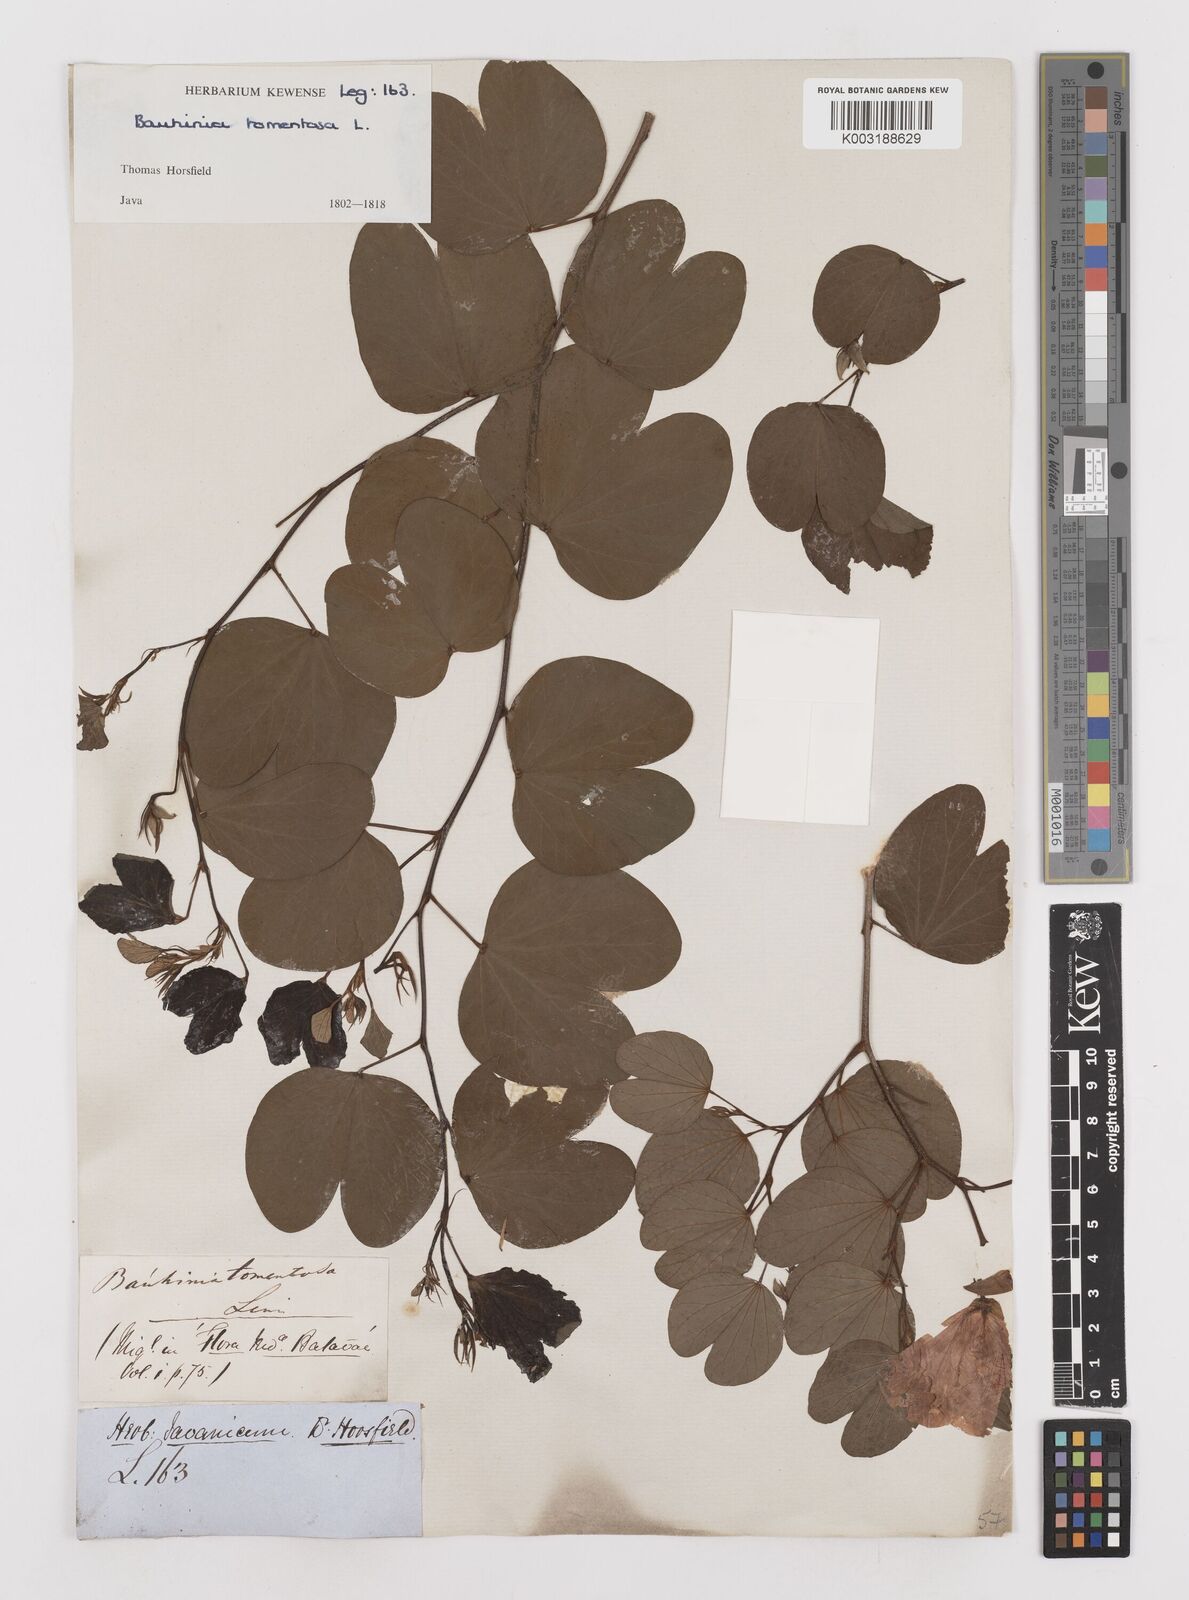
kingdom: Plantae
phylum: Tracheophyta
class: Magnoliopsida
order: Fabales
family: Fabaceae
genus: Bauhinia
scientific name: Bauhinia tomentosa
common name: Bell bauhinia
